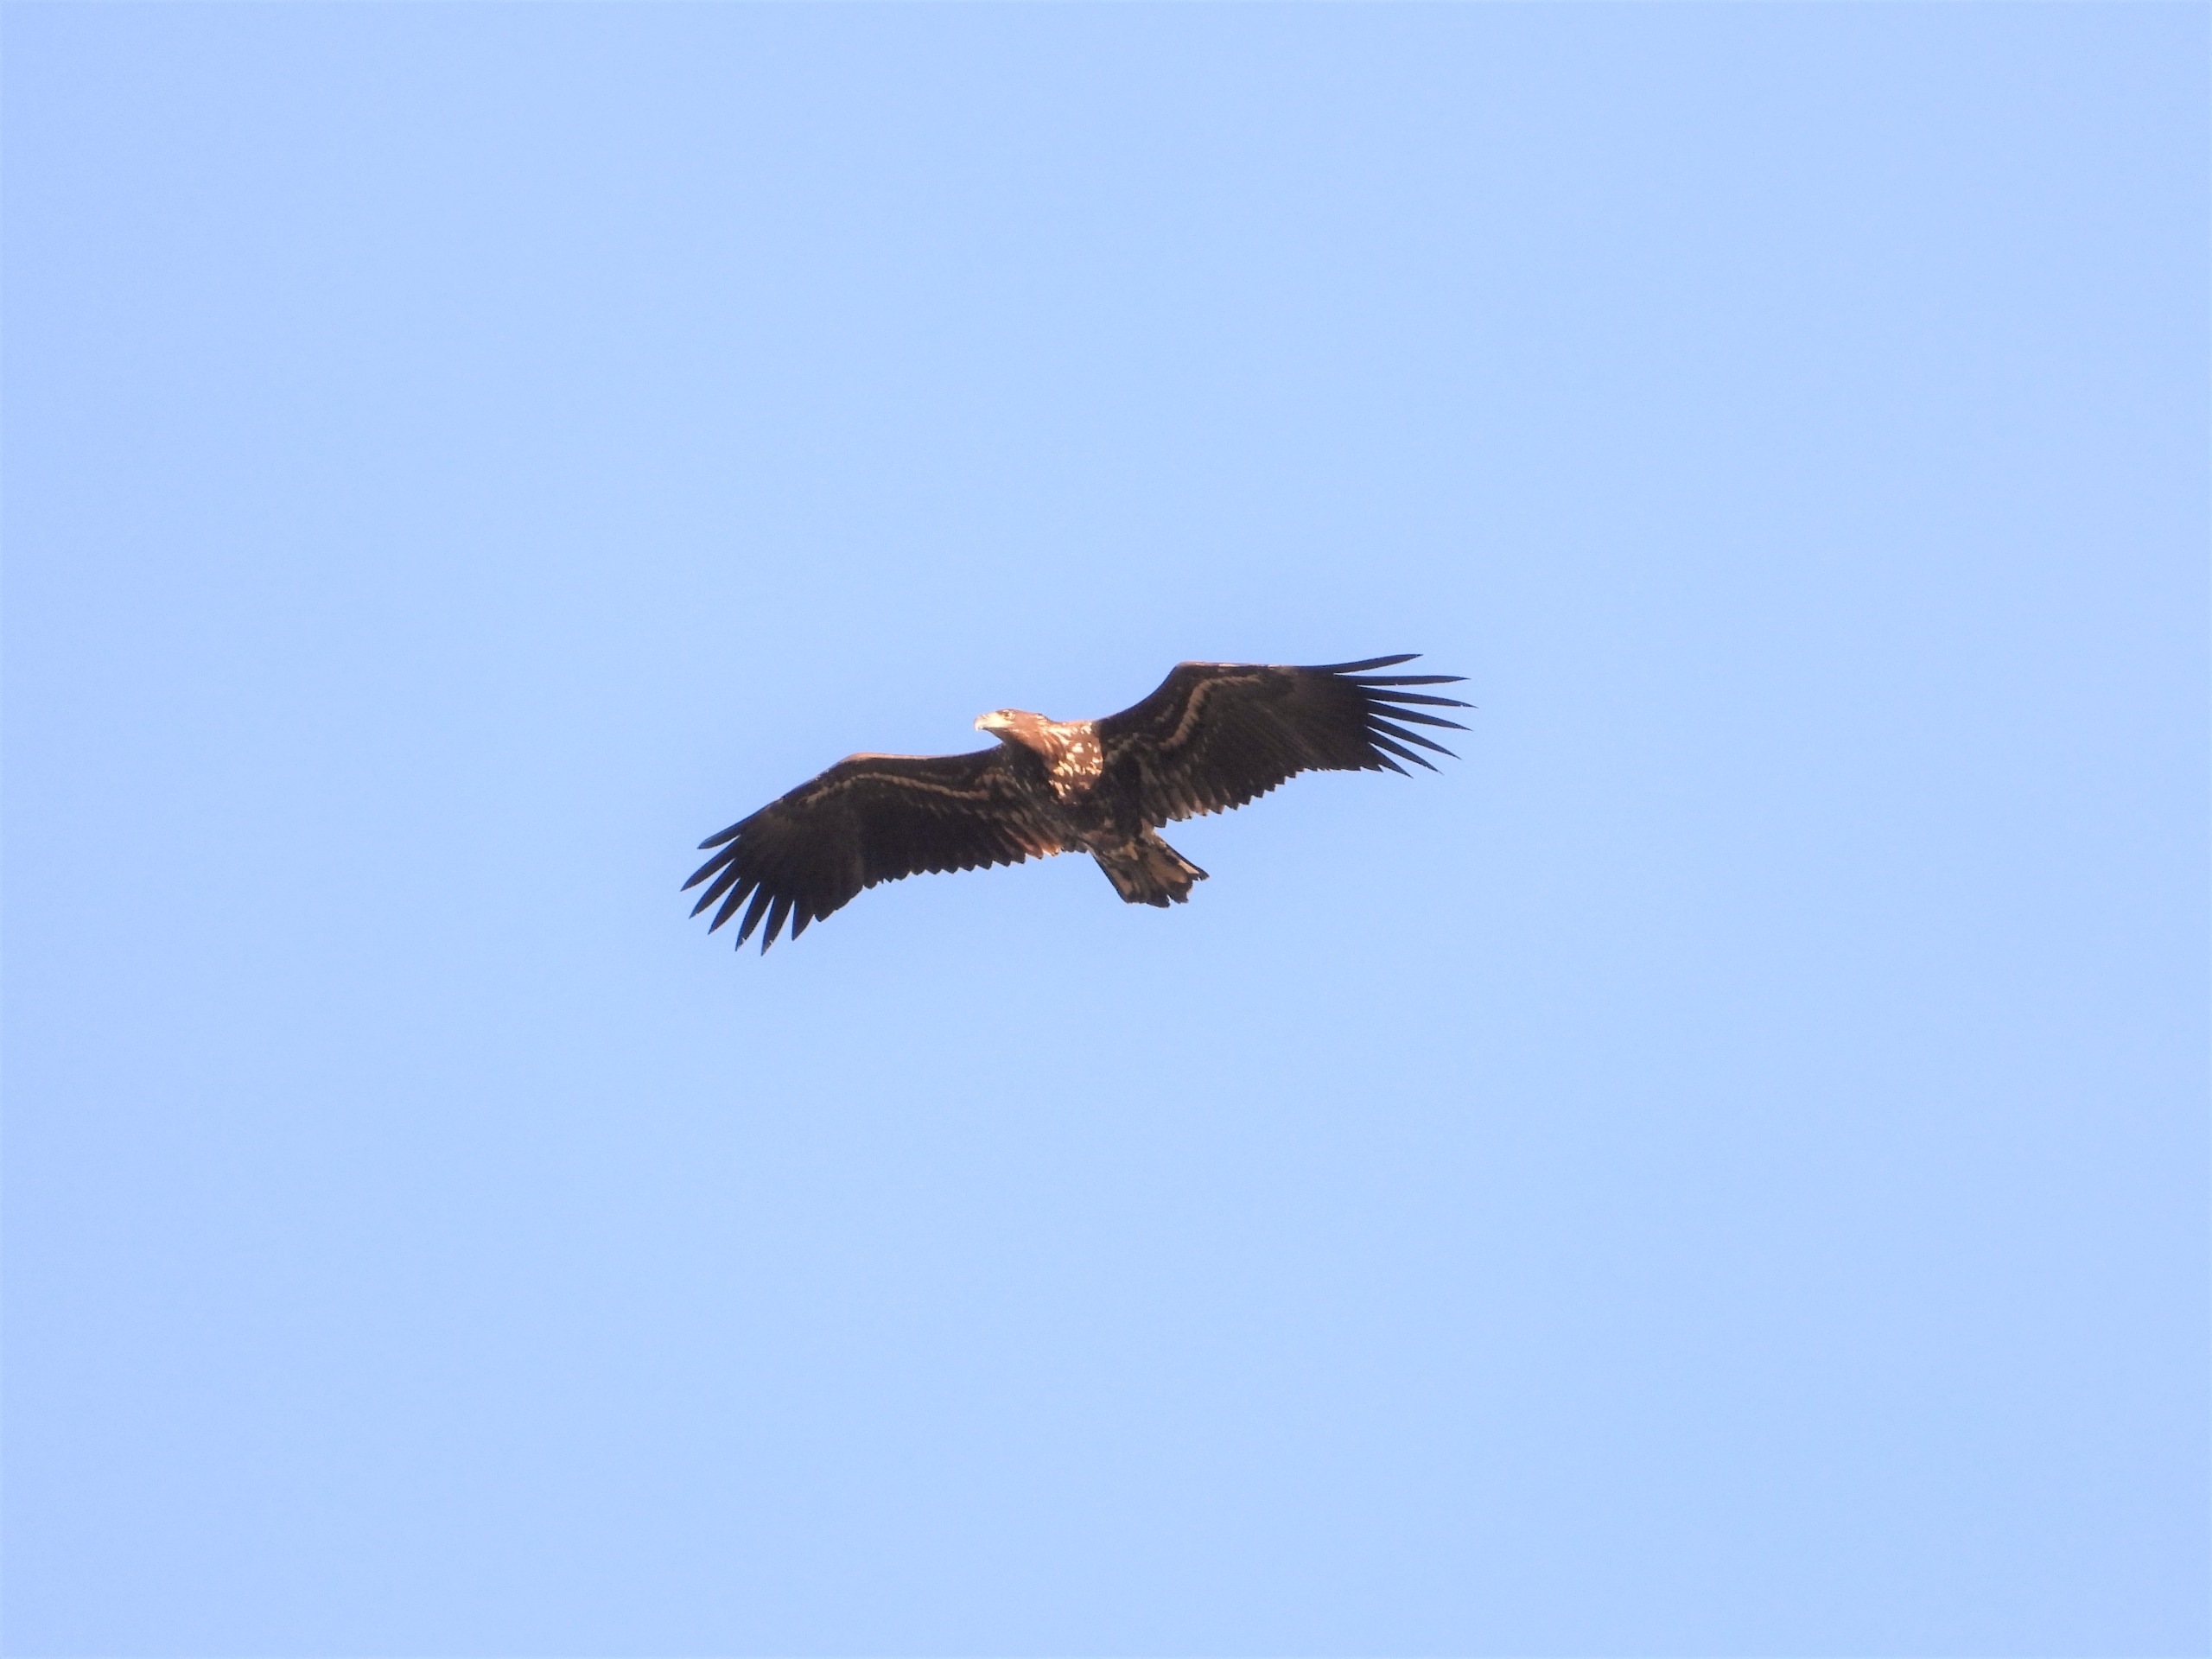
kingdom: Animalia
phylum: Chordata
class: Aves
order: Accipitriformes
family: Accipitridae
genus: Haliaeetus
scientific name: Haliaeetus albicilla
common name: Havørn
